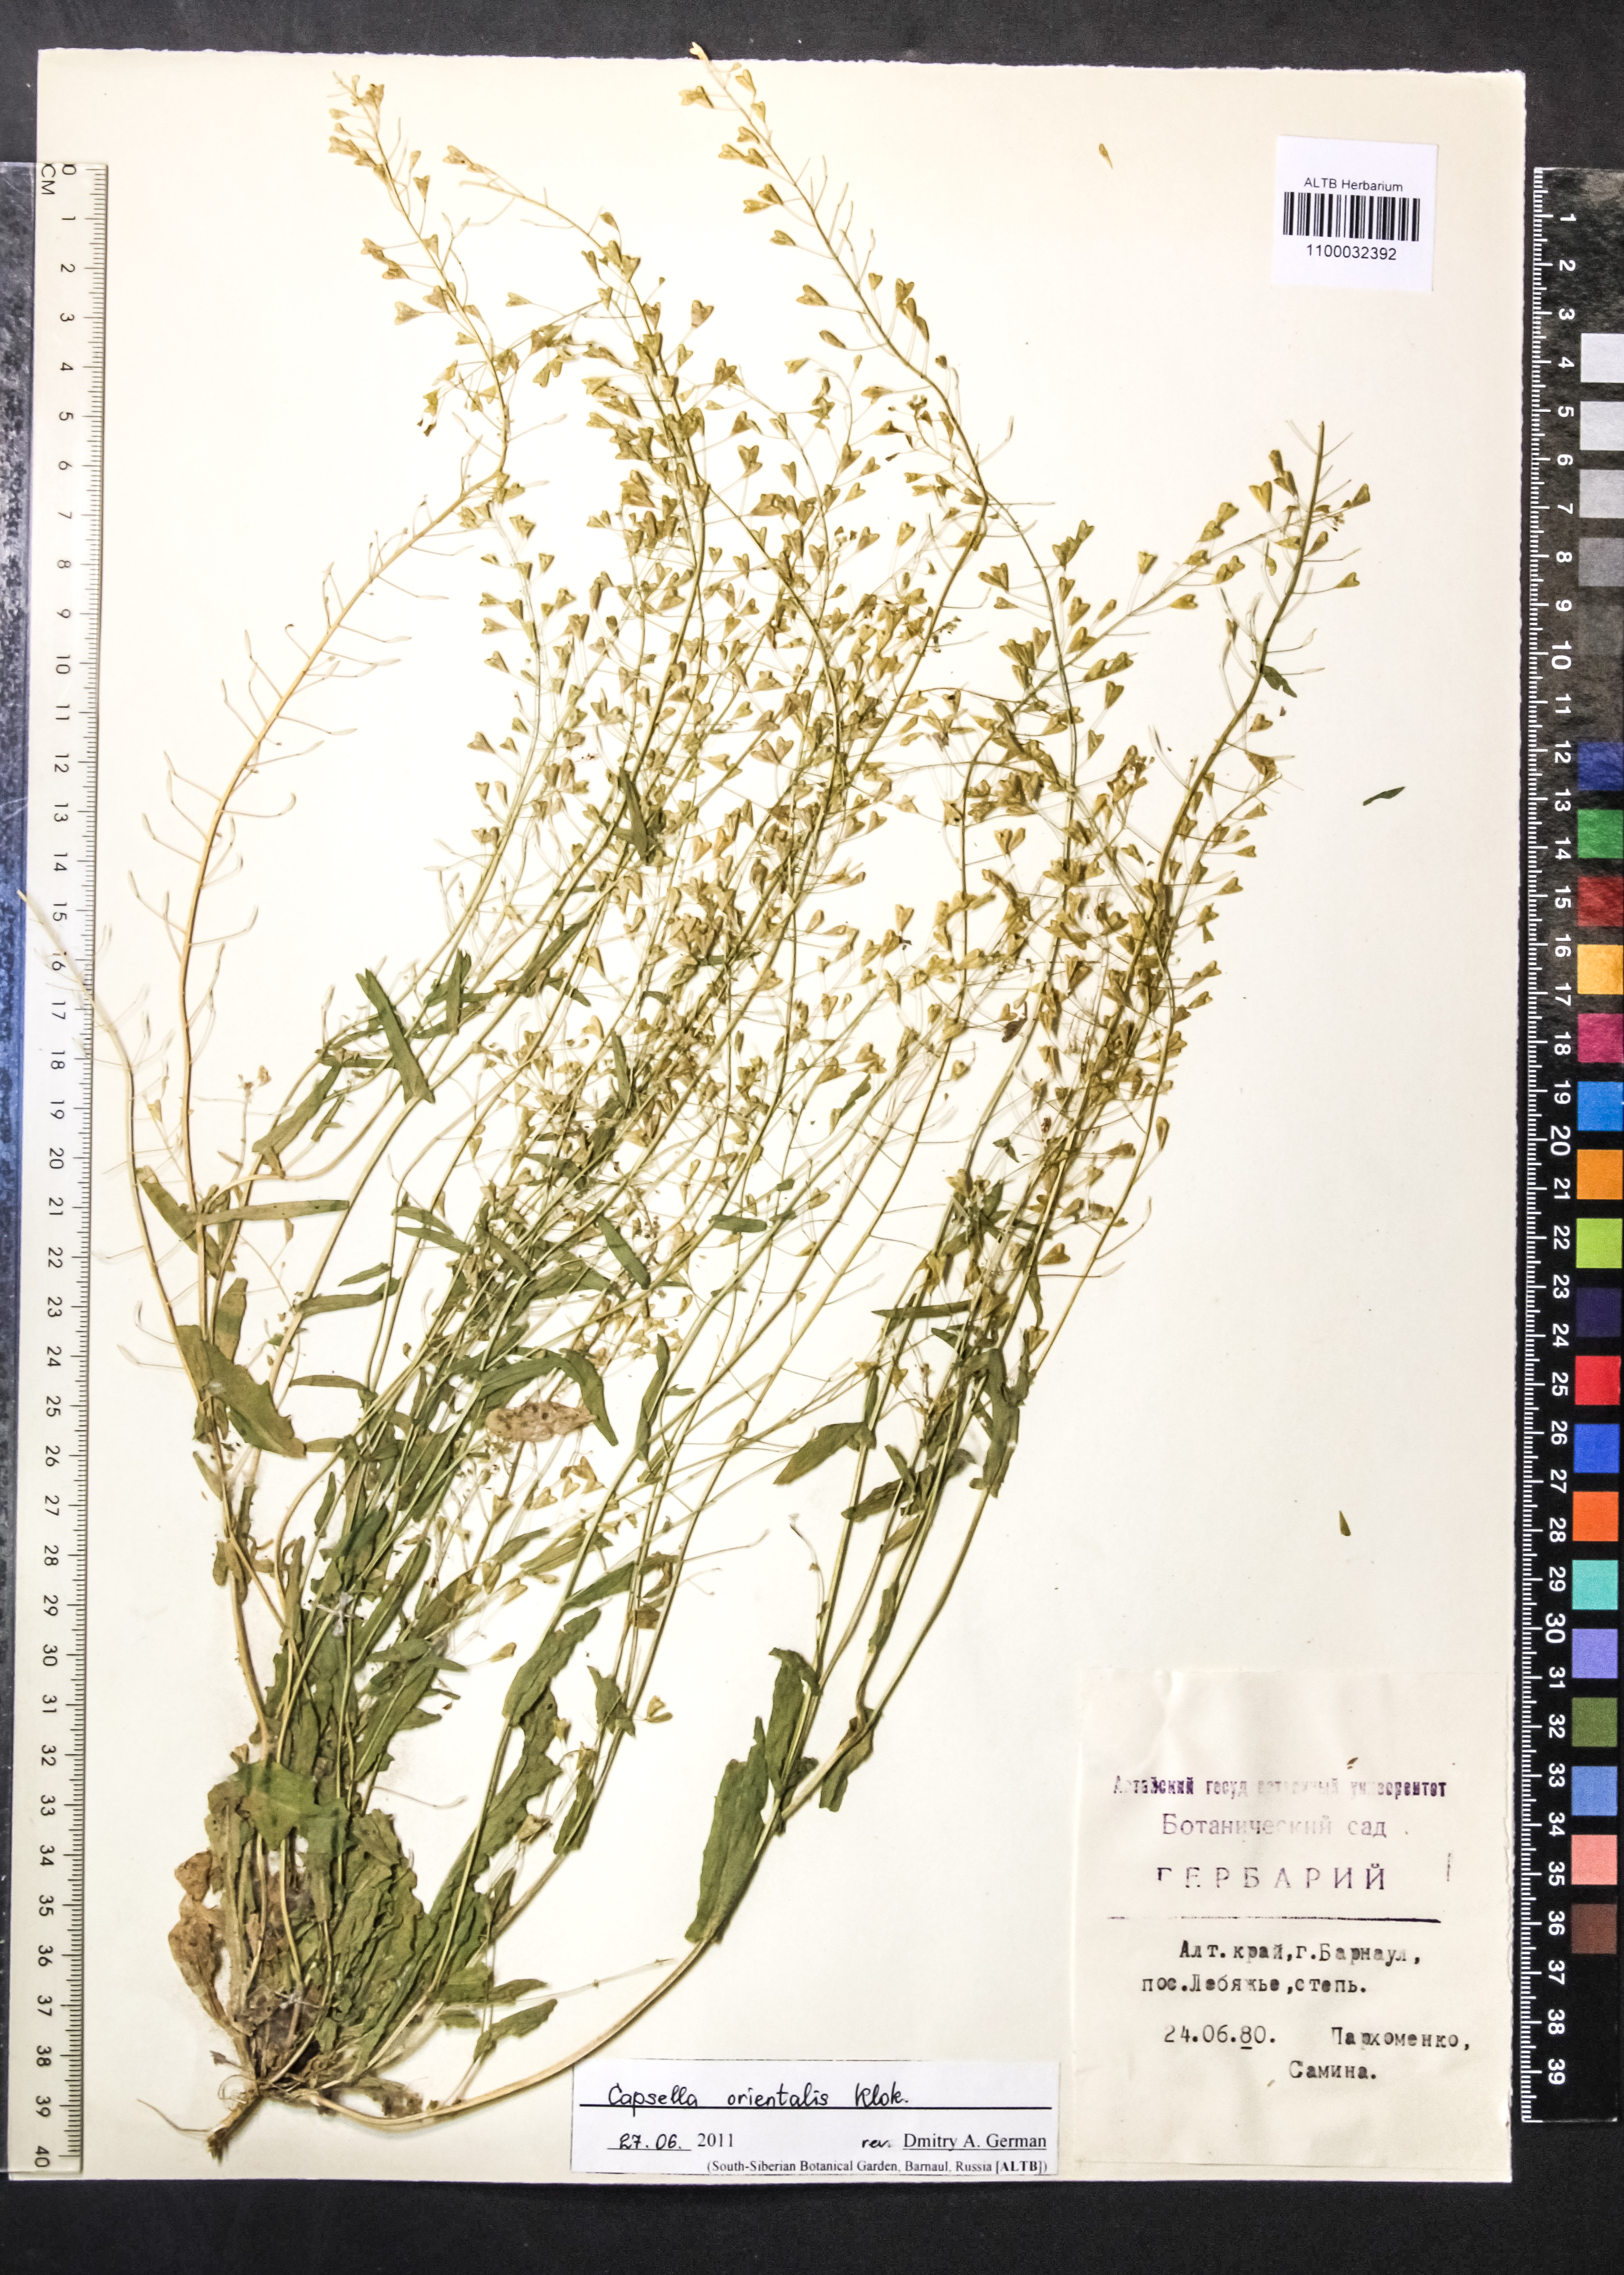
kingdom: Plantae
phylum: Tracheophyta
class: Magnoliopsida
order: Brassicales
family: Brassicaceae
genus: Capsella
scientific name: Capsella orientalis
